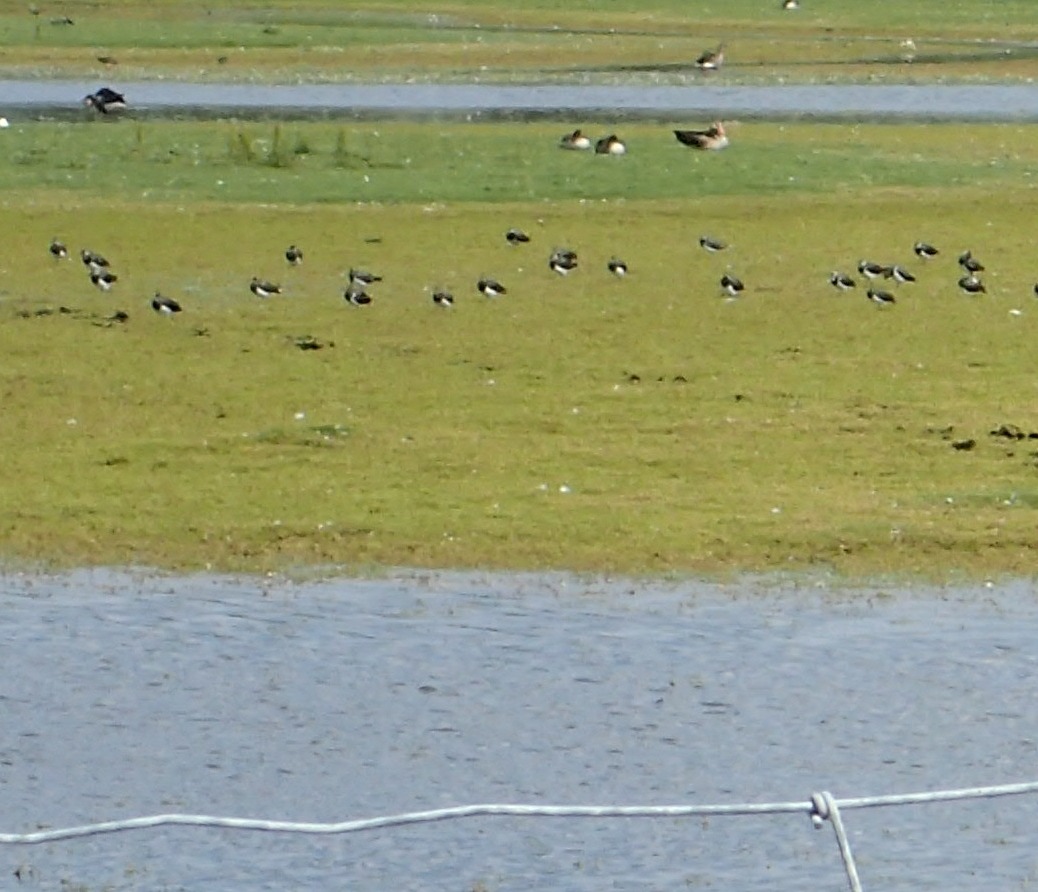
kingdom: Animalia
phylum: Chordata
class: Aves
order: Charadriiformes
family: Charadriidae
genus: Vanellus
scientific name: Vanellus vanellus
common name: Vibe
